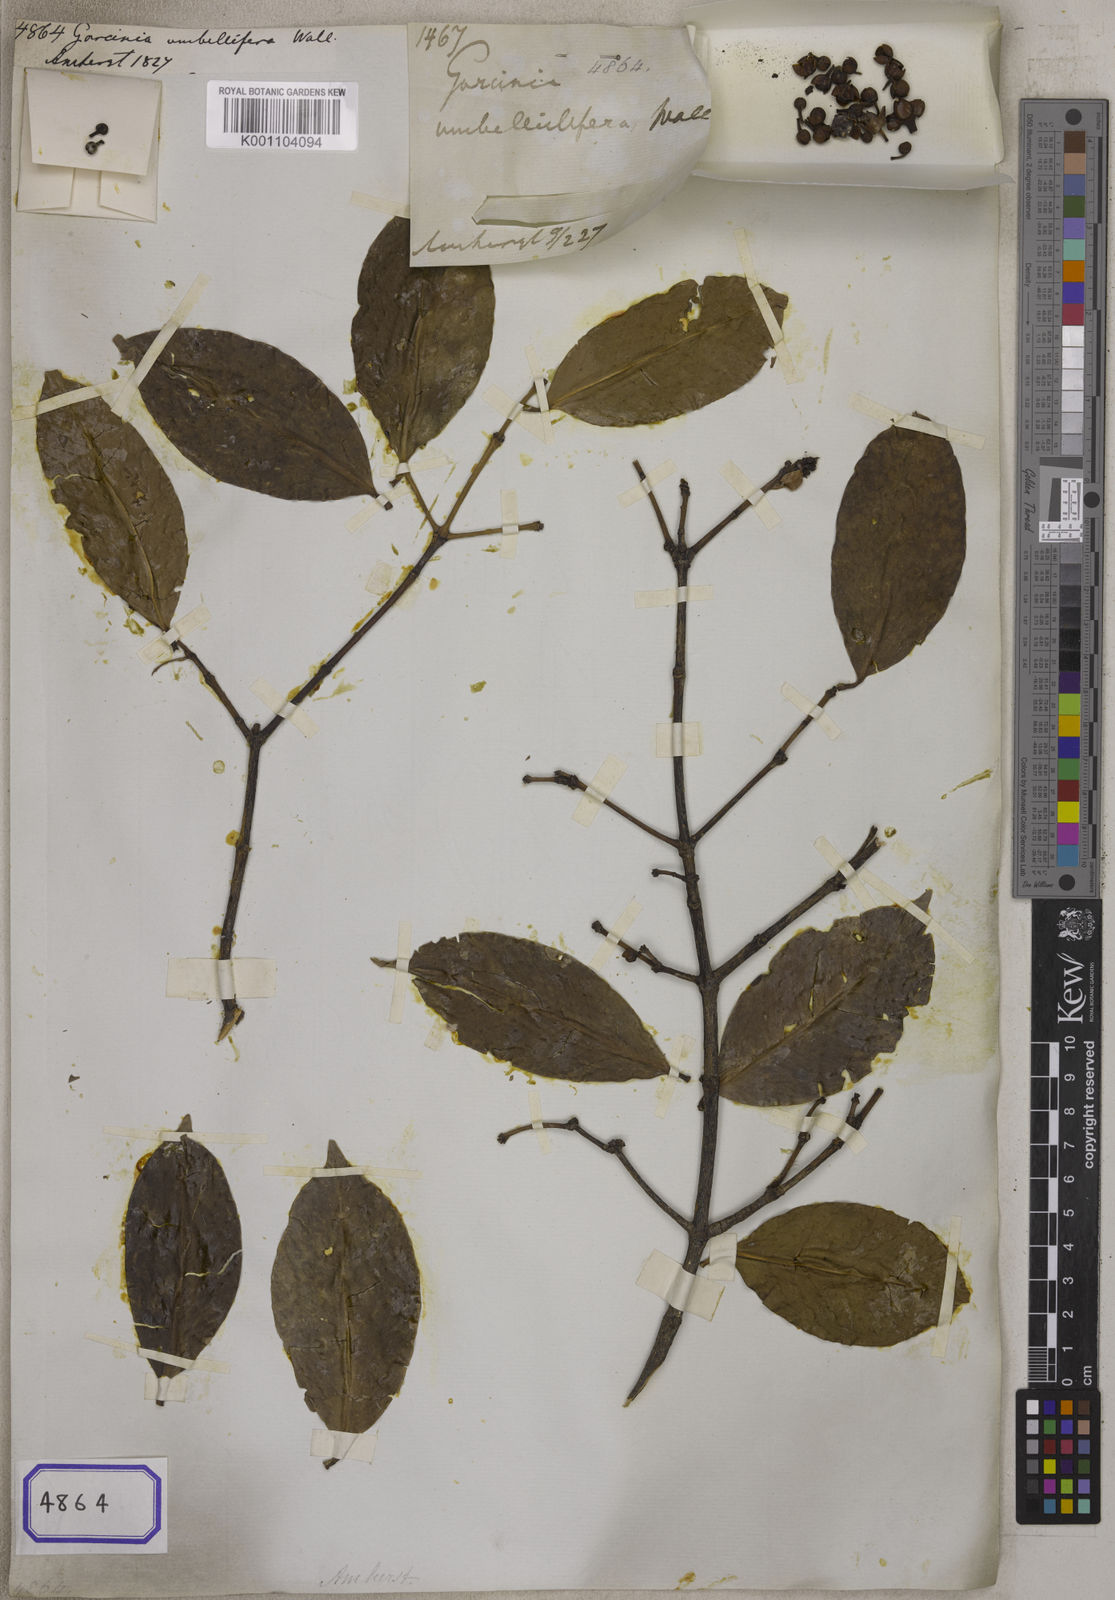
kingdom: Plantae
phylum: Tracheophyta
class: Magnoliopsida
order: Malpighiales
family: Clusiaceae
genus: Garcinia
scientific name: Garcinia cowa
